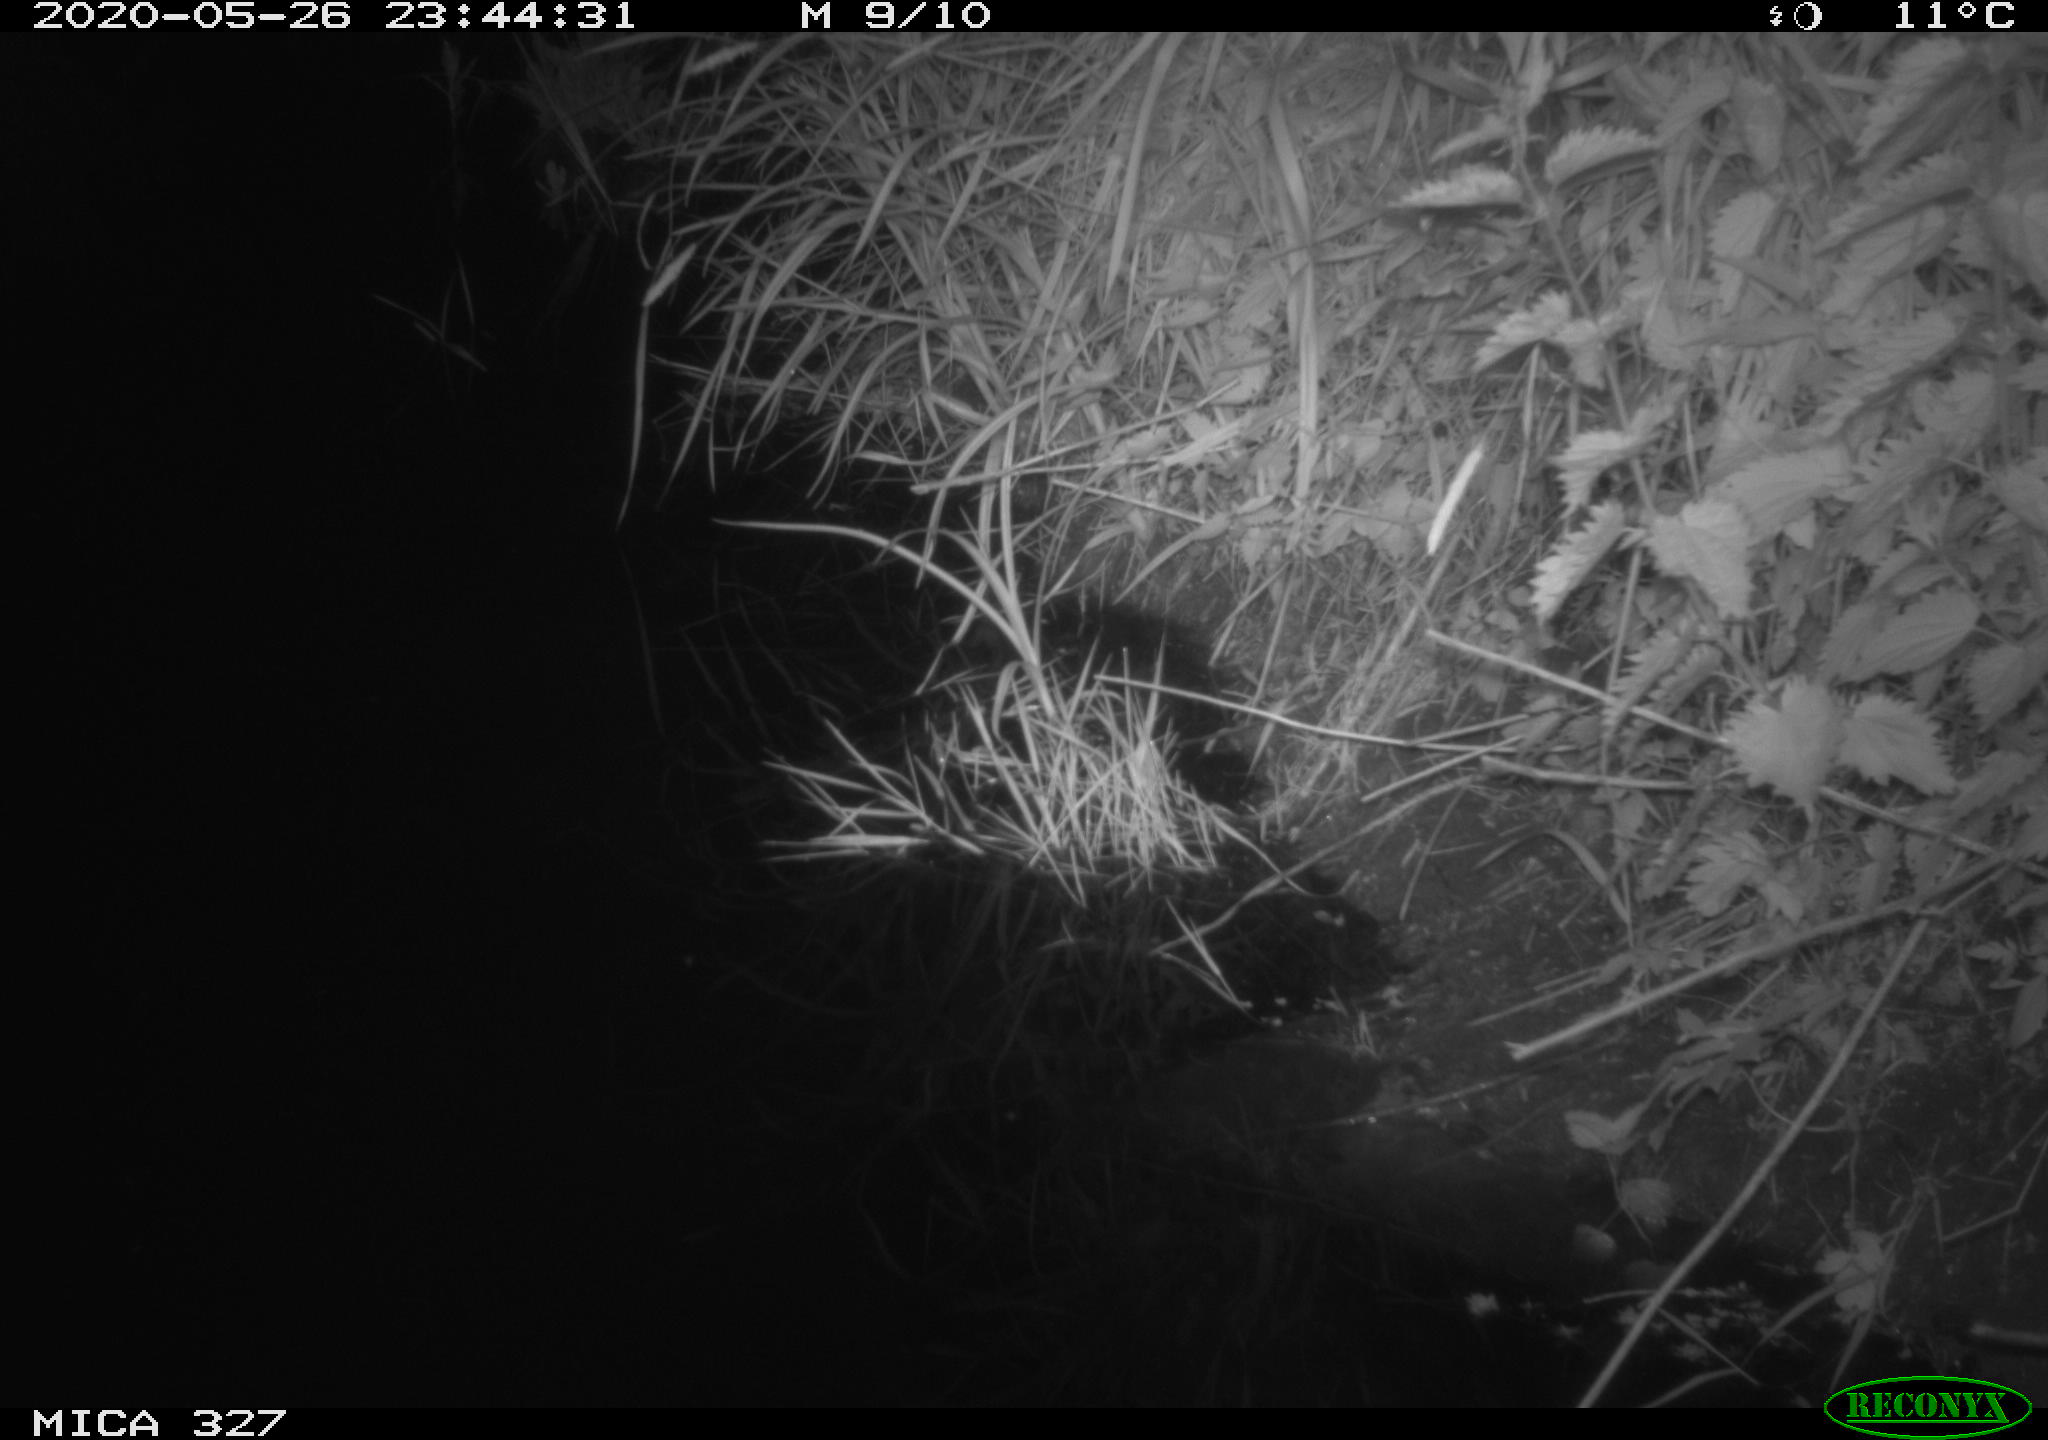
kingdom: Animalia
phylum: Chordata
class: Mammalia
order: Rodentia
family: Muridae
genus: Rattus
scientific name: Rattus norvegicus
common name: Brown rat
